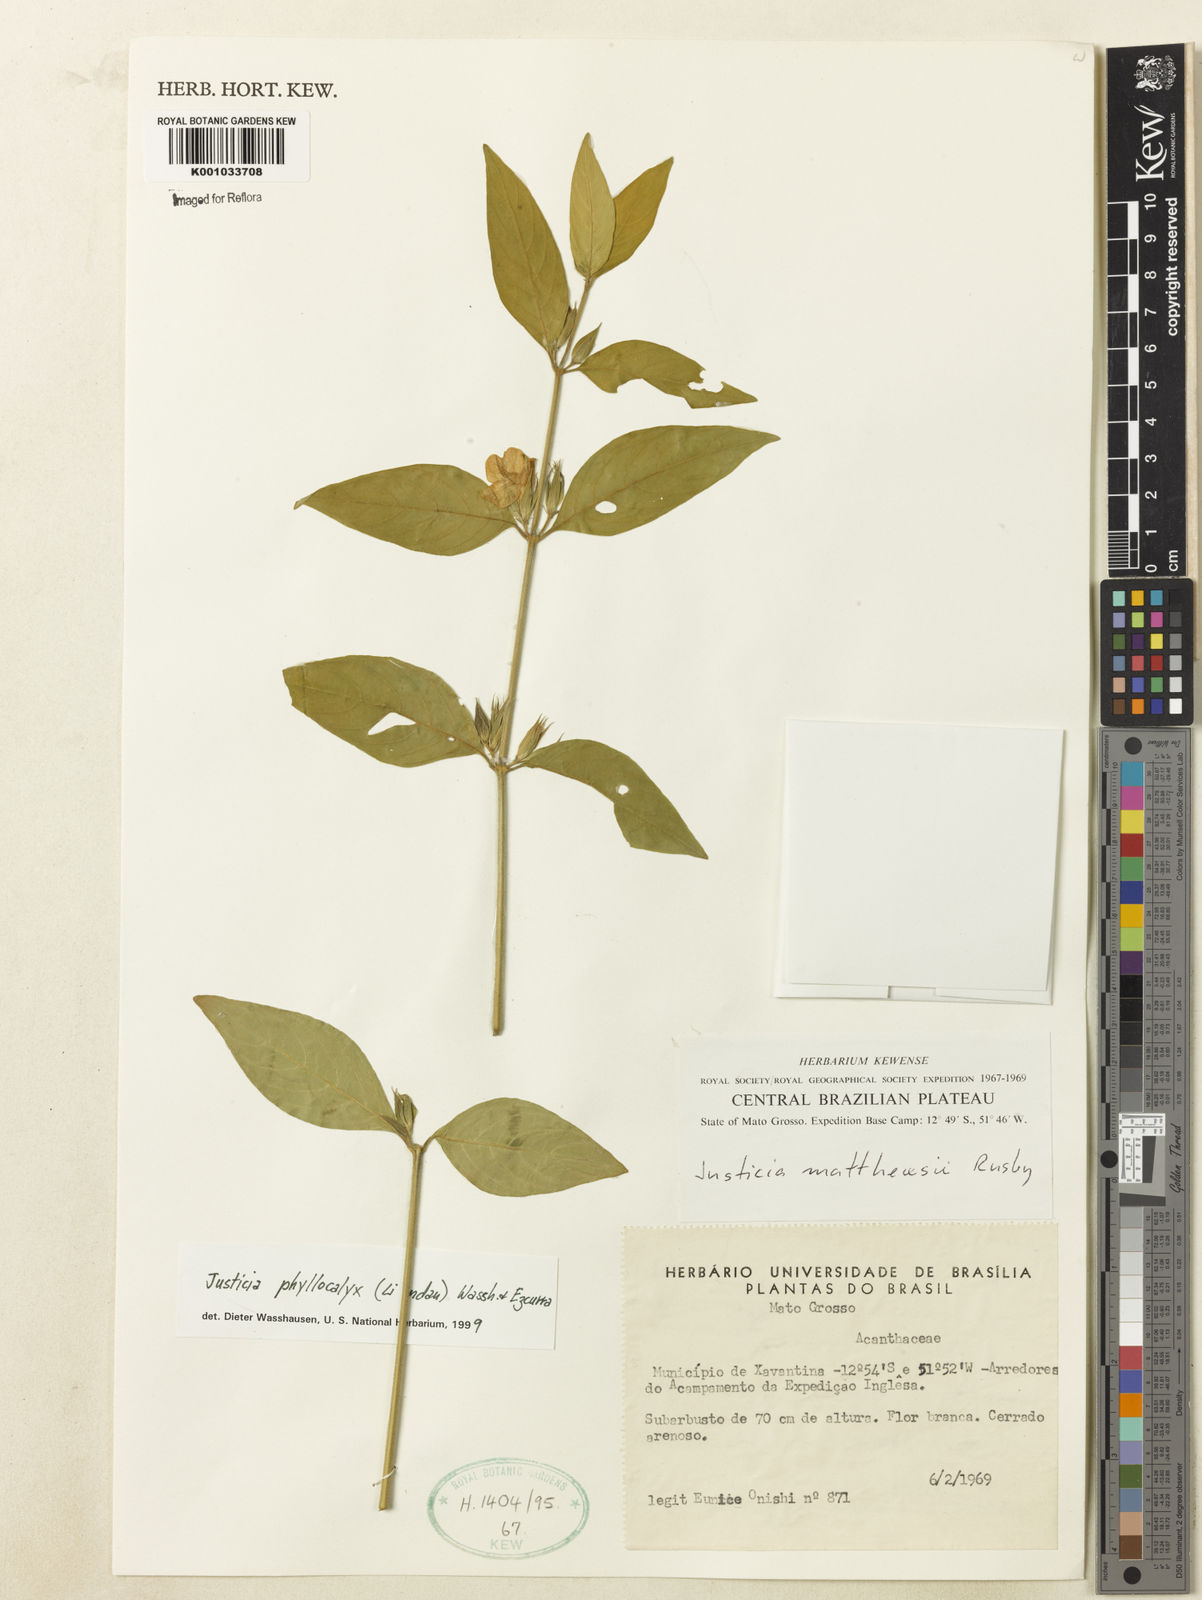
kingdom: Plantae
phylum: Tracheophyta
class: Magnoliopsida
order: Lamiales
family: Acanthaceae
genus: Justicia
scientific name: Justicia phyllocalyx
